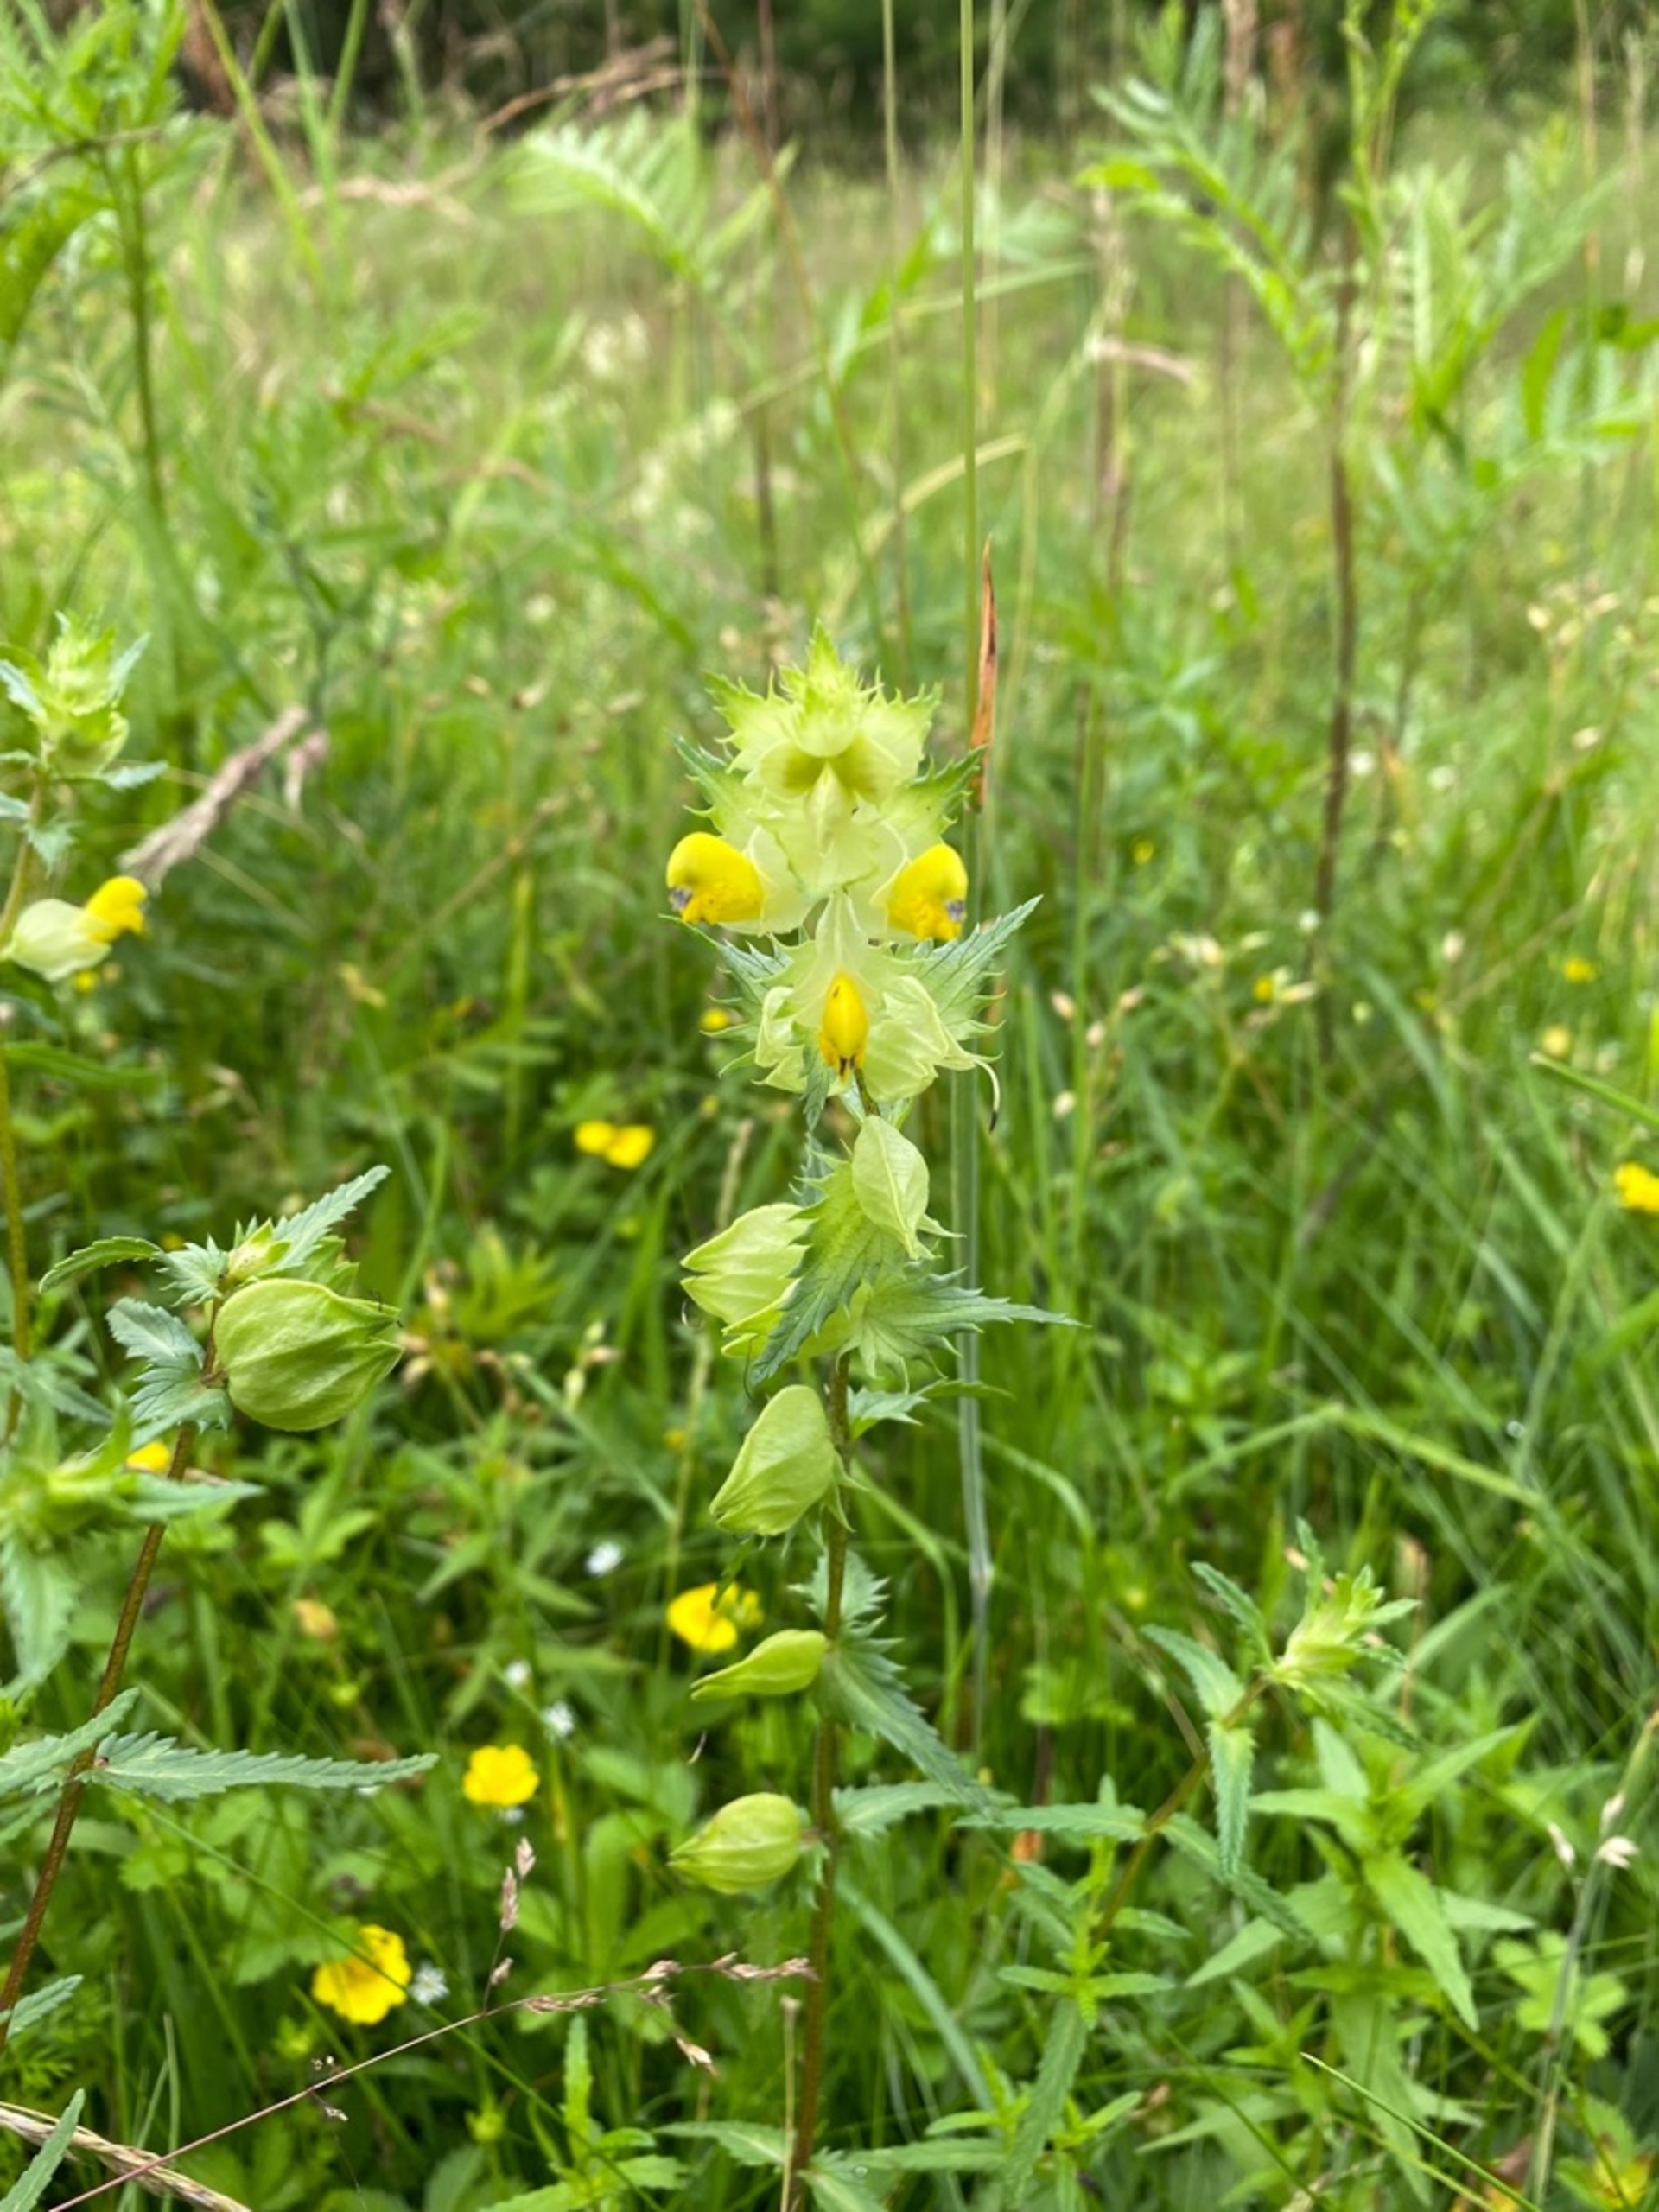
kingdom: Plantae
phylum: Tracheophyta
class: Magnoliopsida
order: Lamiales
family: Orobanchaceae
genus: Rhinanthus
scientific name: Rhinanthus
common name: Stor skjaller
